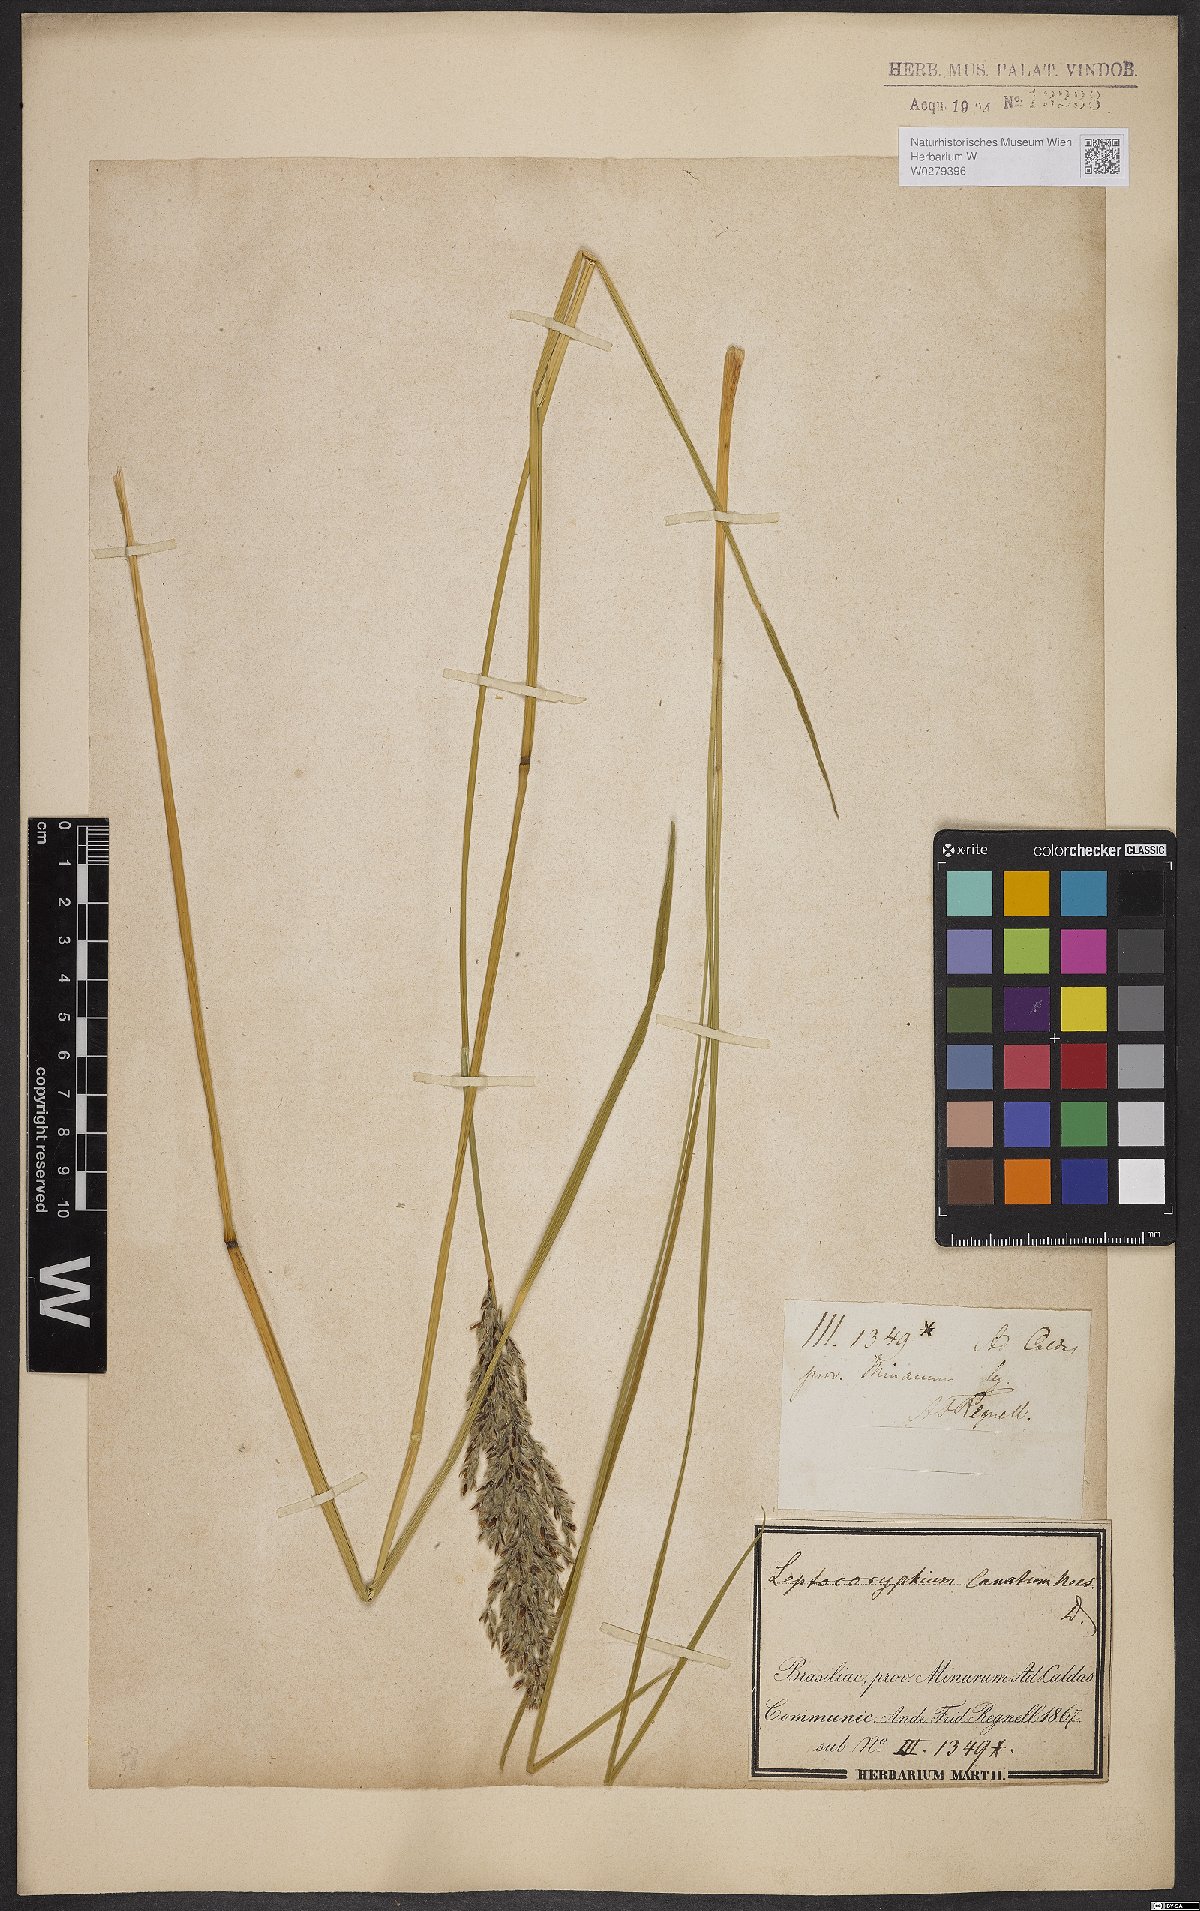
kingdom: Plantae
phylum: Tracheophyta
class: Liliopsida
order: Poales
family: Poaceae
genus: Anthaenantia
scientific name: Anthaenantia lanata
